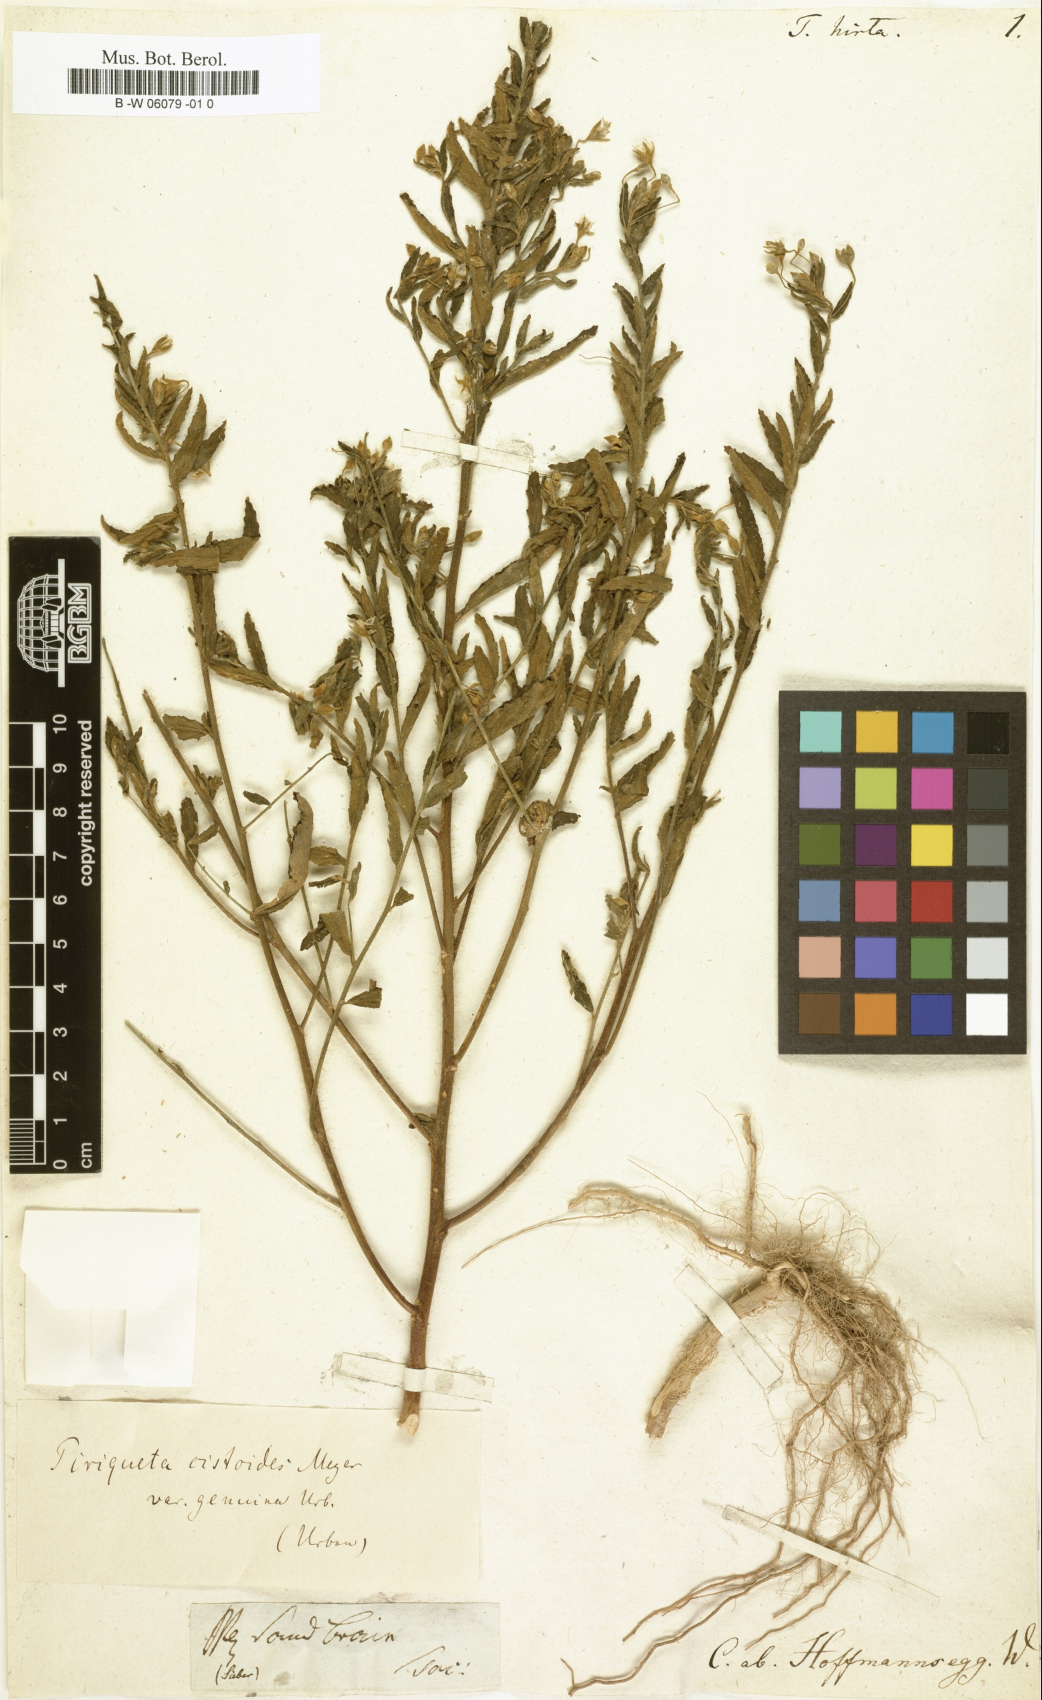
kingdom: Plantae
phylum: Tracheophyta
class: Magnoliopsida
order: Malpighiales
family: Turneraceae
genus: Piriqueta
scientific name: Piriqueta cistoides
